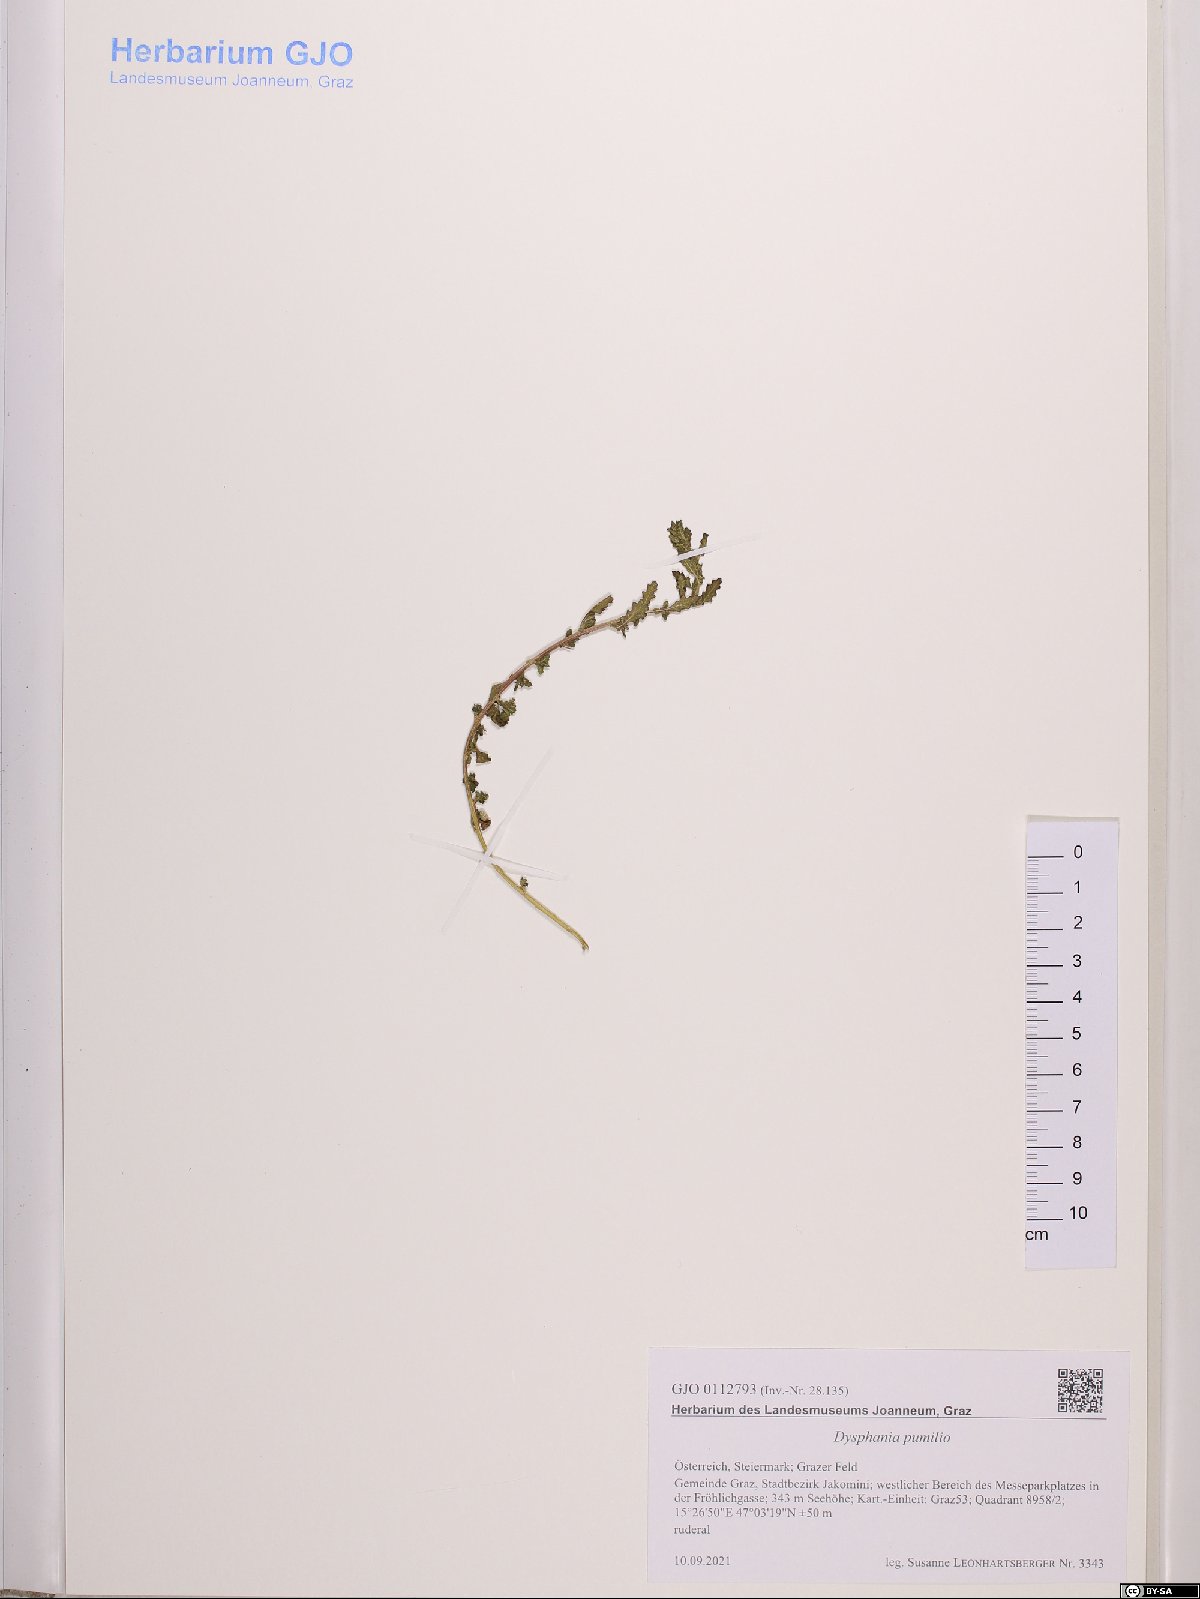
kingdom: Plantae
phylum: Tracheophyta
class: Magnoliopsida
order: Caryophyllales
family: Amaranthaceae
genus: Dysphania
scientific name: Dysphania pumilio
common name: Clammy goosefoot
